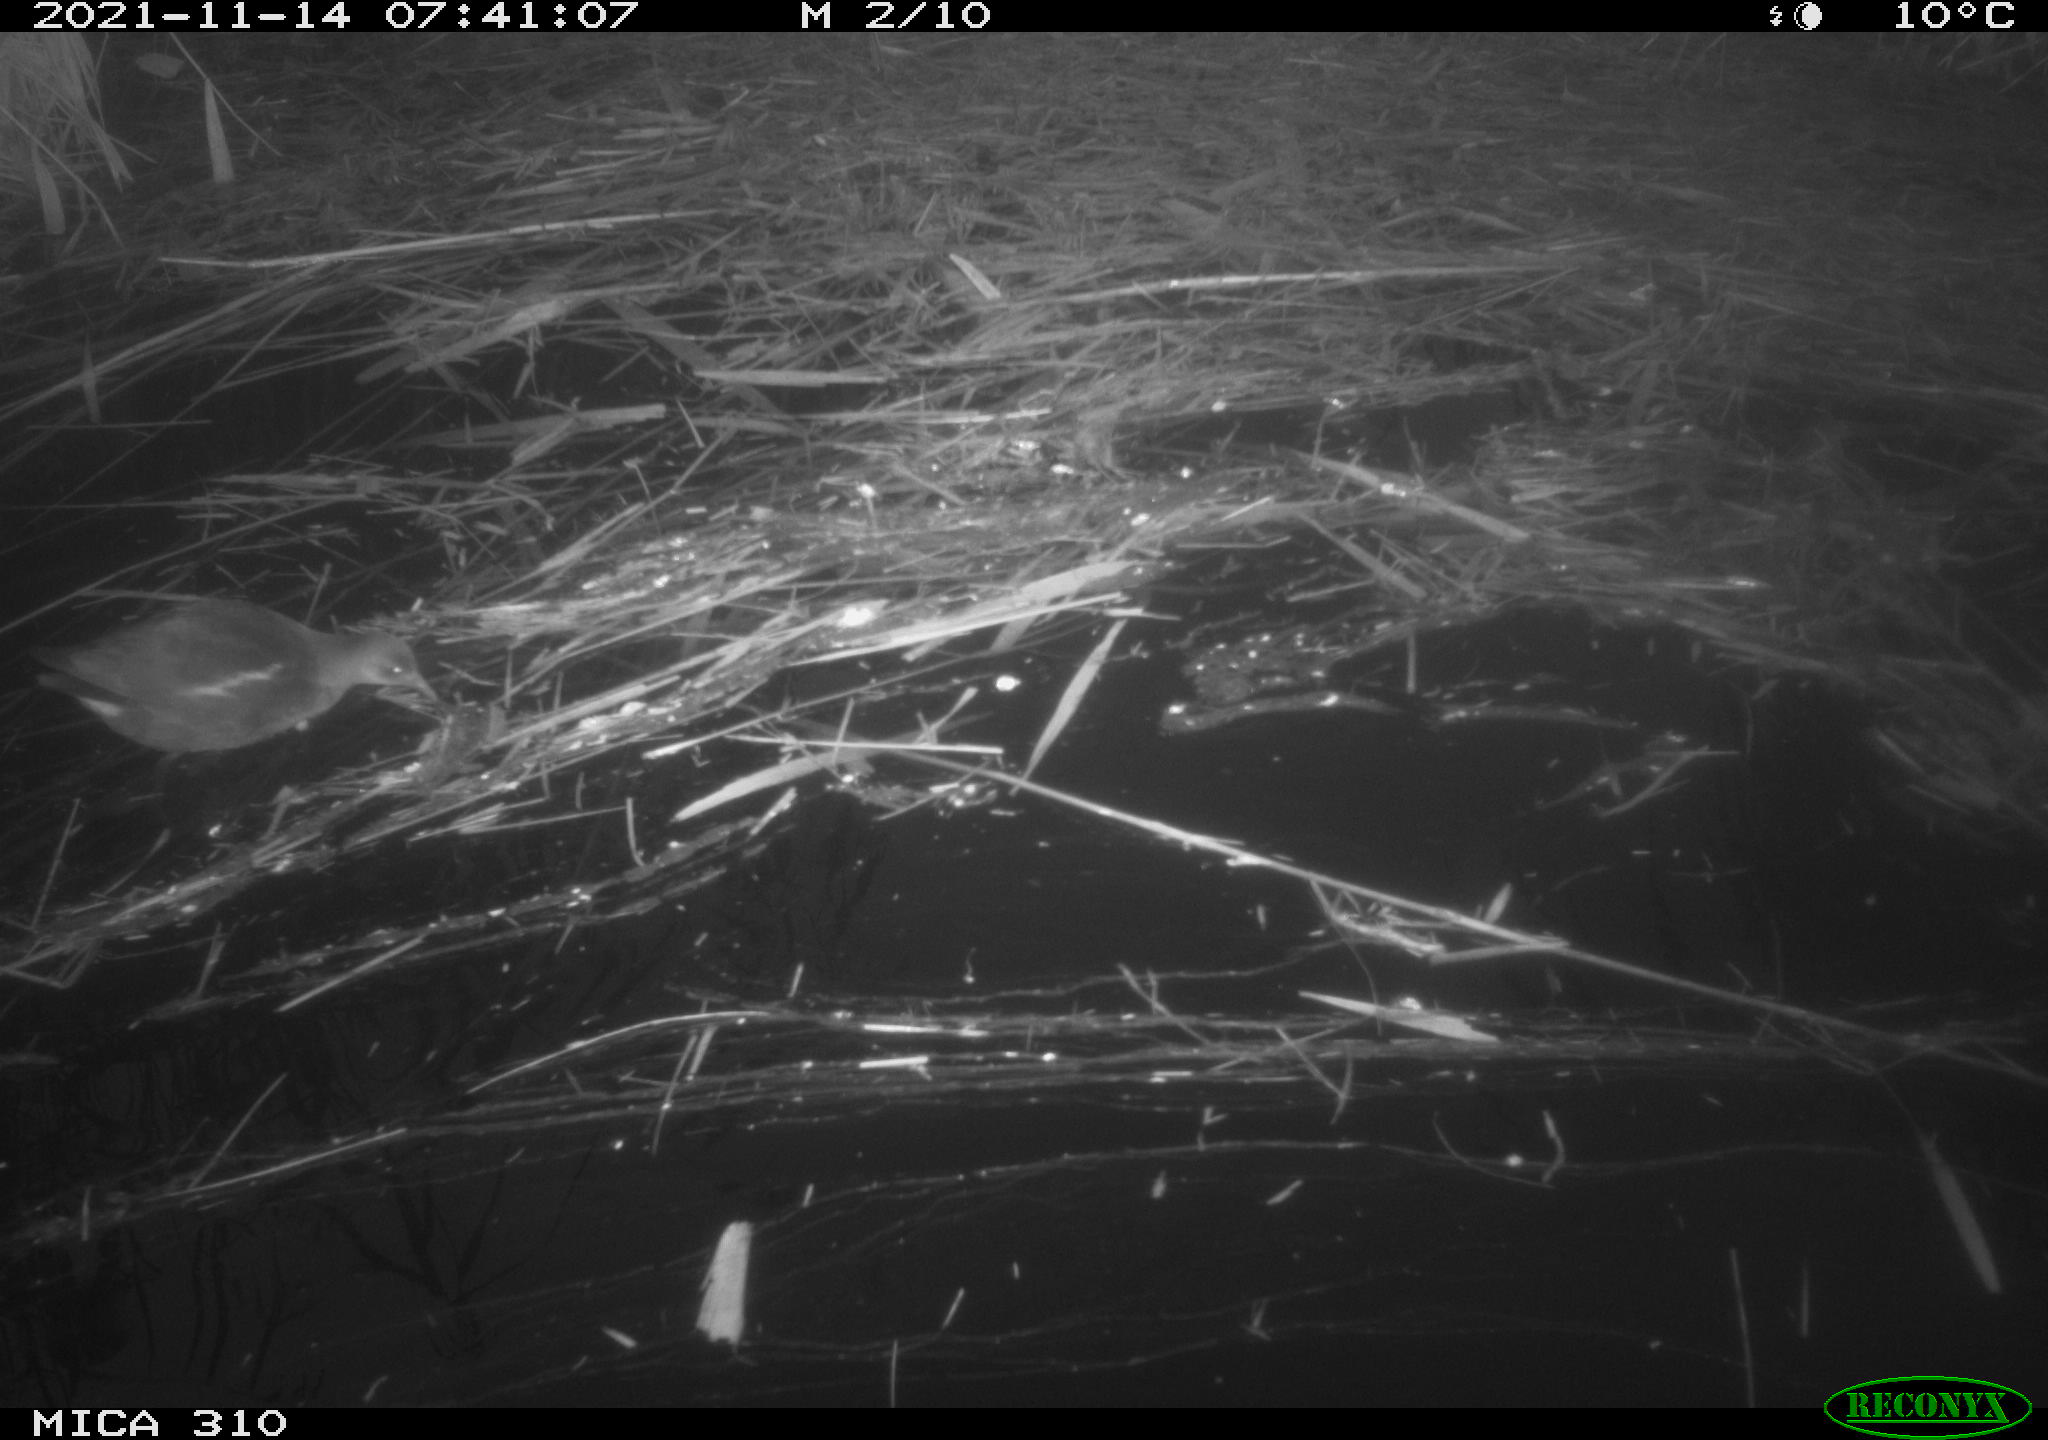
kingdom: Animalia
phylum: Chordata
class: Aves
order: Gruiformes
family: Rallidae
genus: Gallinula
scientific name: Gallinula chloropus
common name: Common moorhen
